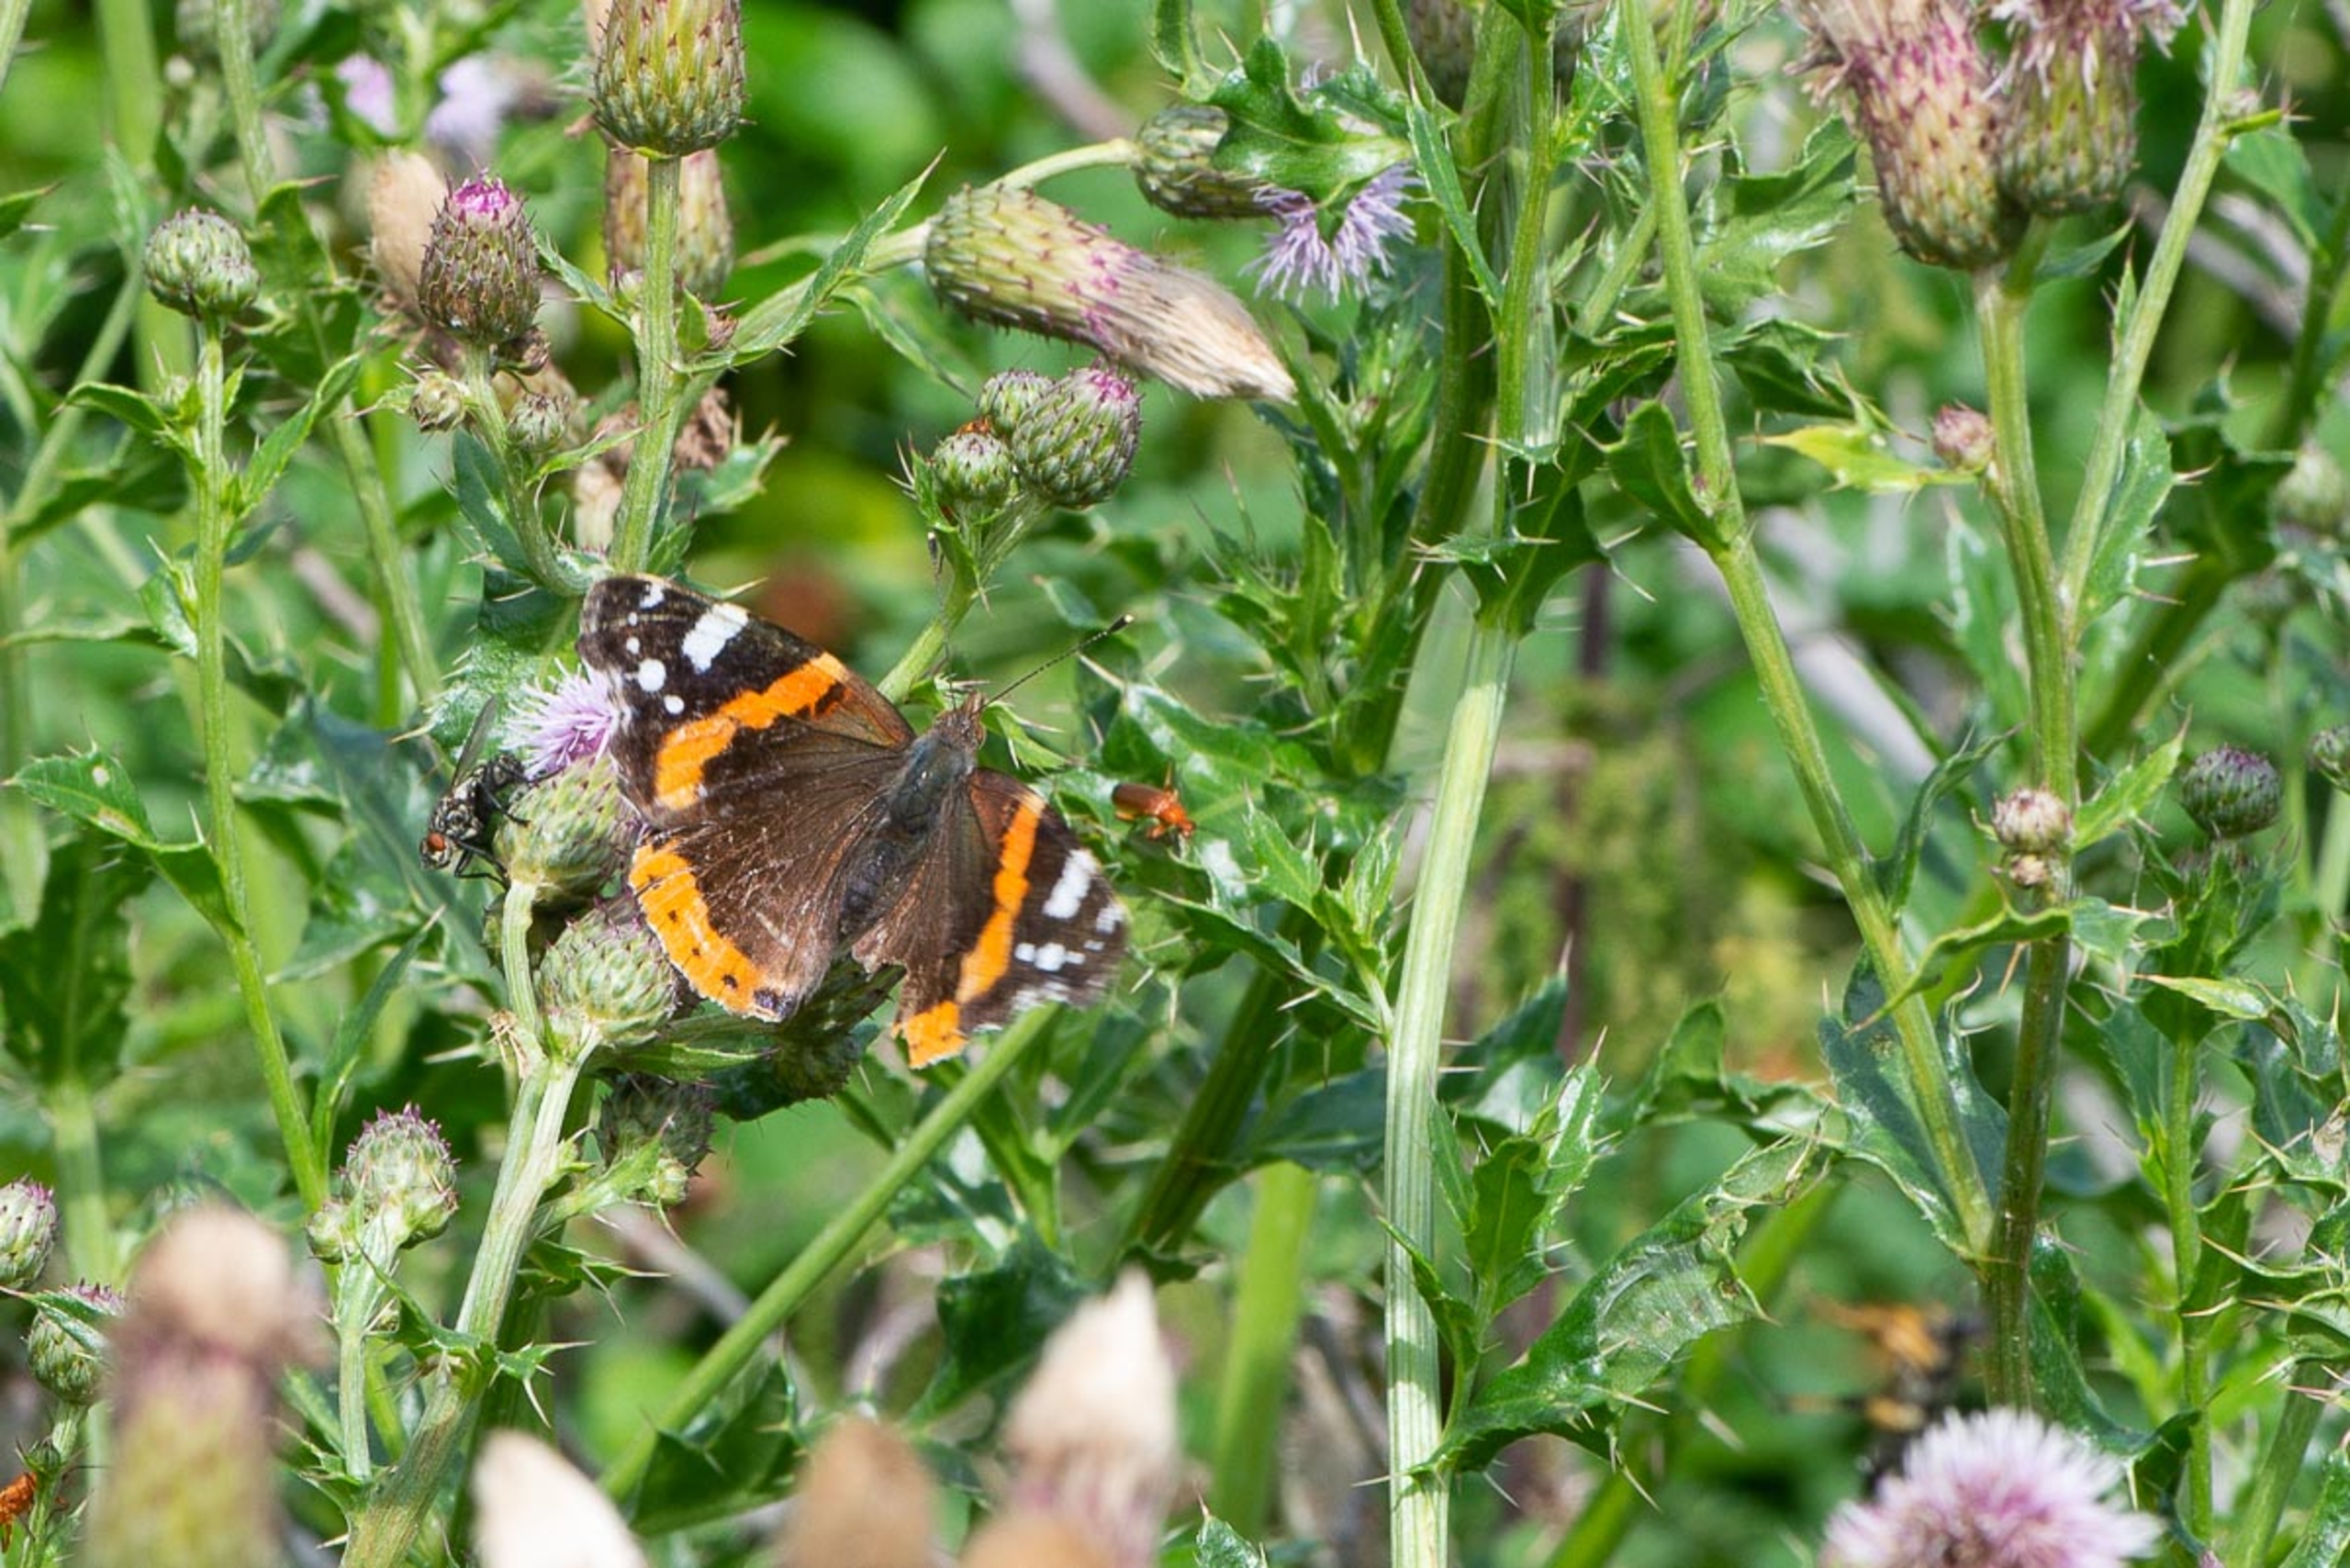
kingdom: Animalia
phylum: Arthropoda
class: Insecta
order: Lepidoptera
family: Nymphalidae
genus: Vanessa
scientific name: Vanessa atalanta
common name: Admiral
